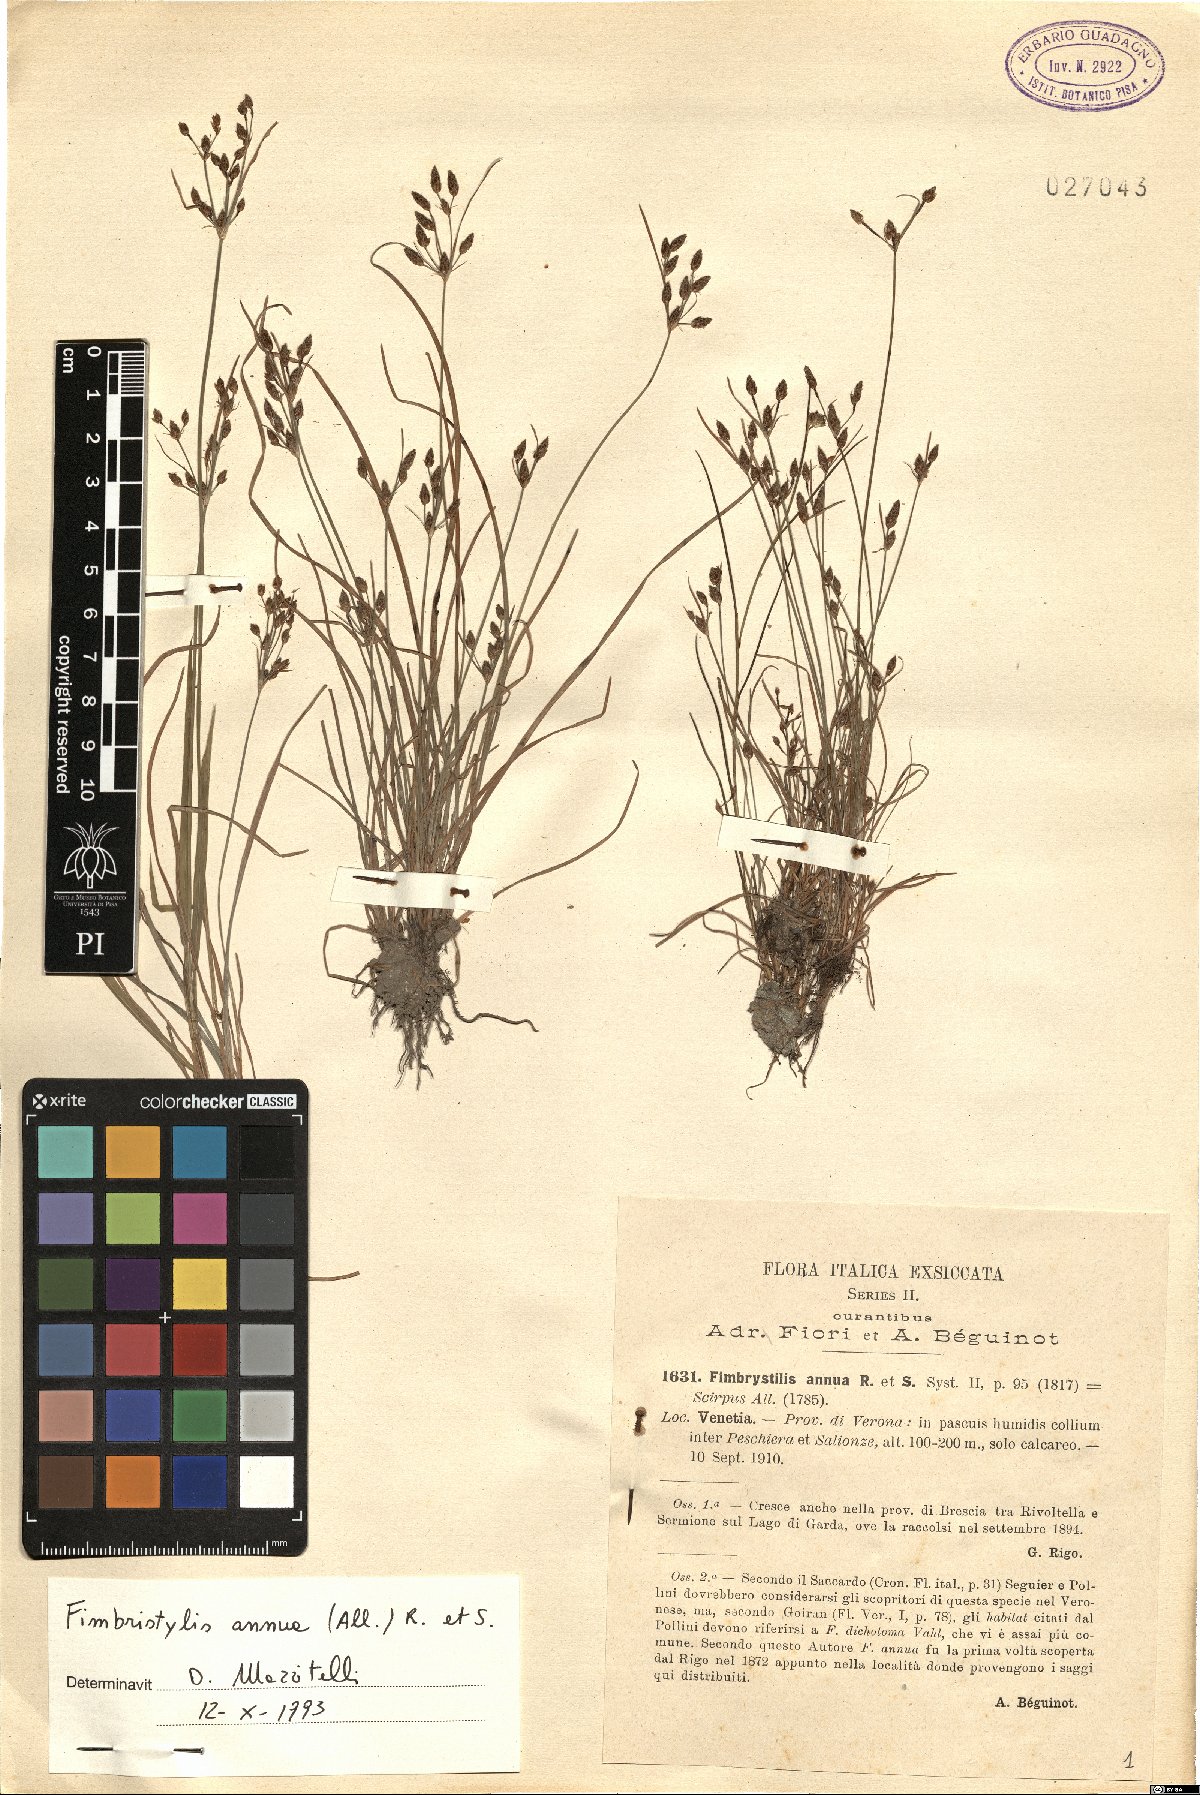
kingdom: Plantae
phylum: Tracheophyta
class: Liliopsida
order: Poales
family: Cyperaceae
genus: Fimbristylis
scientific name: Fimbristylis dichotoma
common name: Forked fimbry
